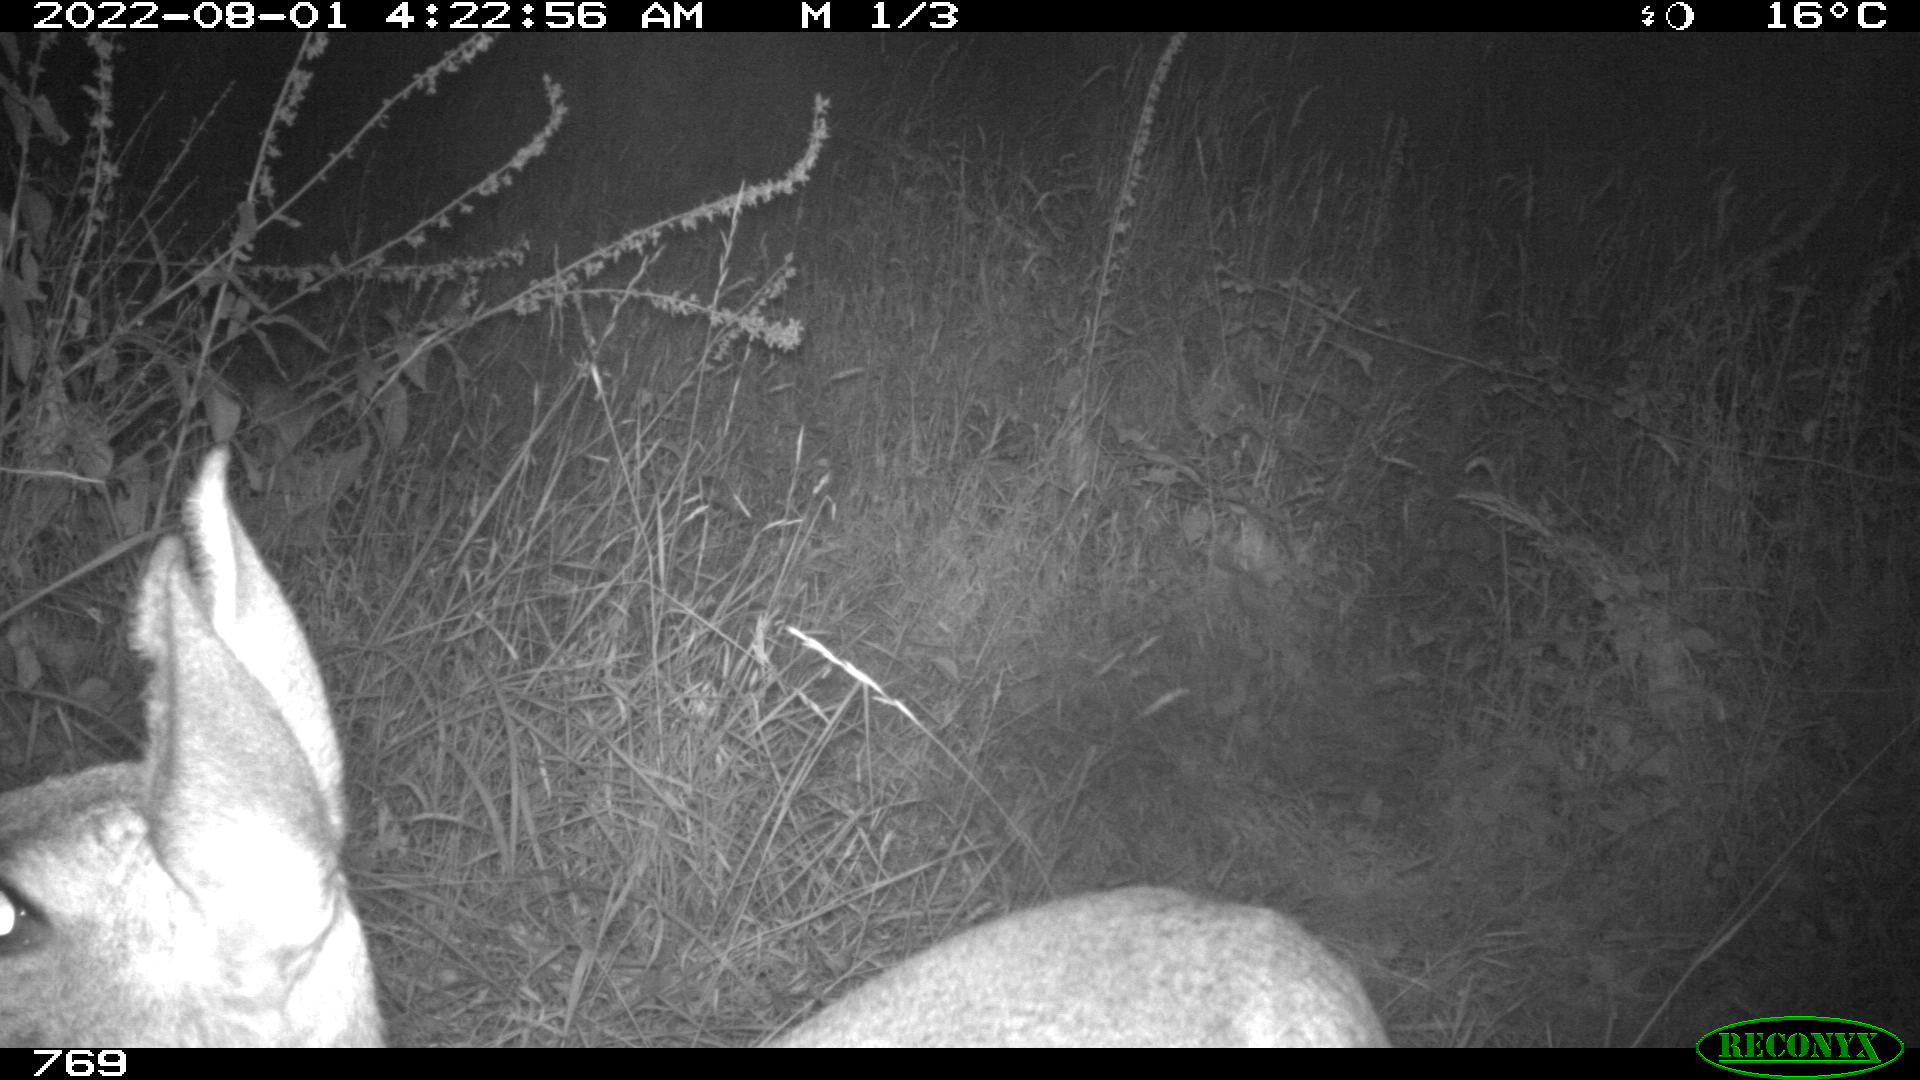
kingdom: Animalia
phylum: Chordata
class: Mammalia
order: Artiodactyla
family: Cervidae
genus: Capreolus
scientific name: Capreolus capreolus
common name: Western roe deer
